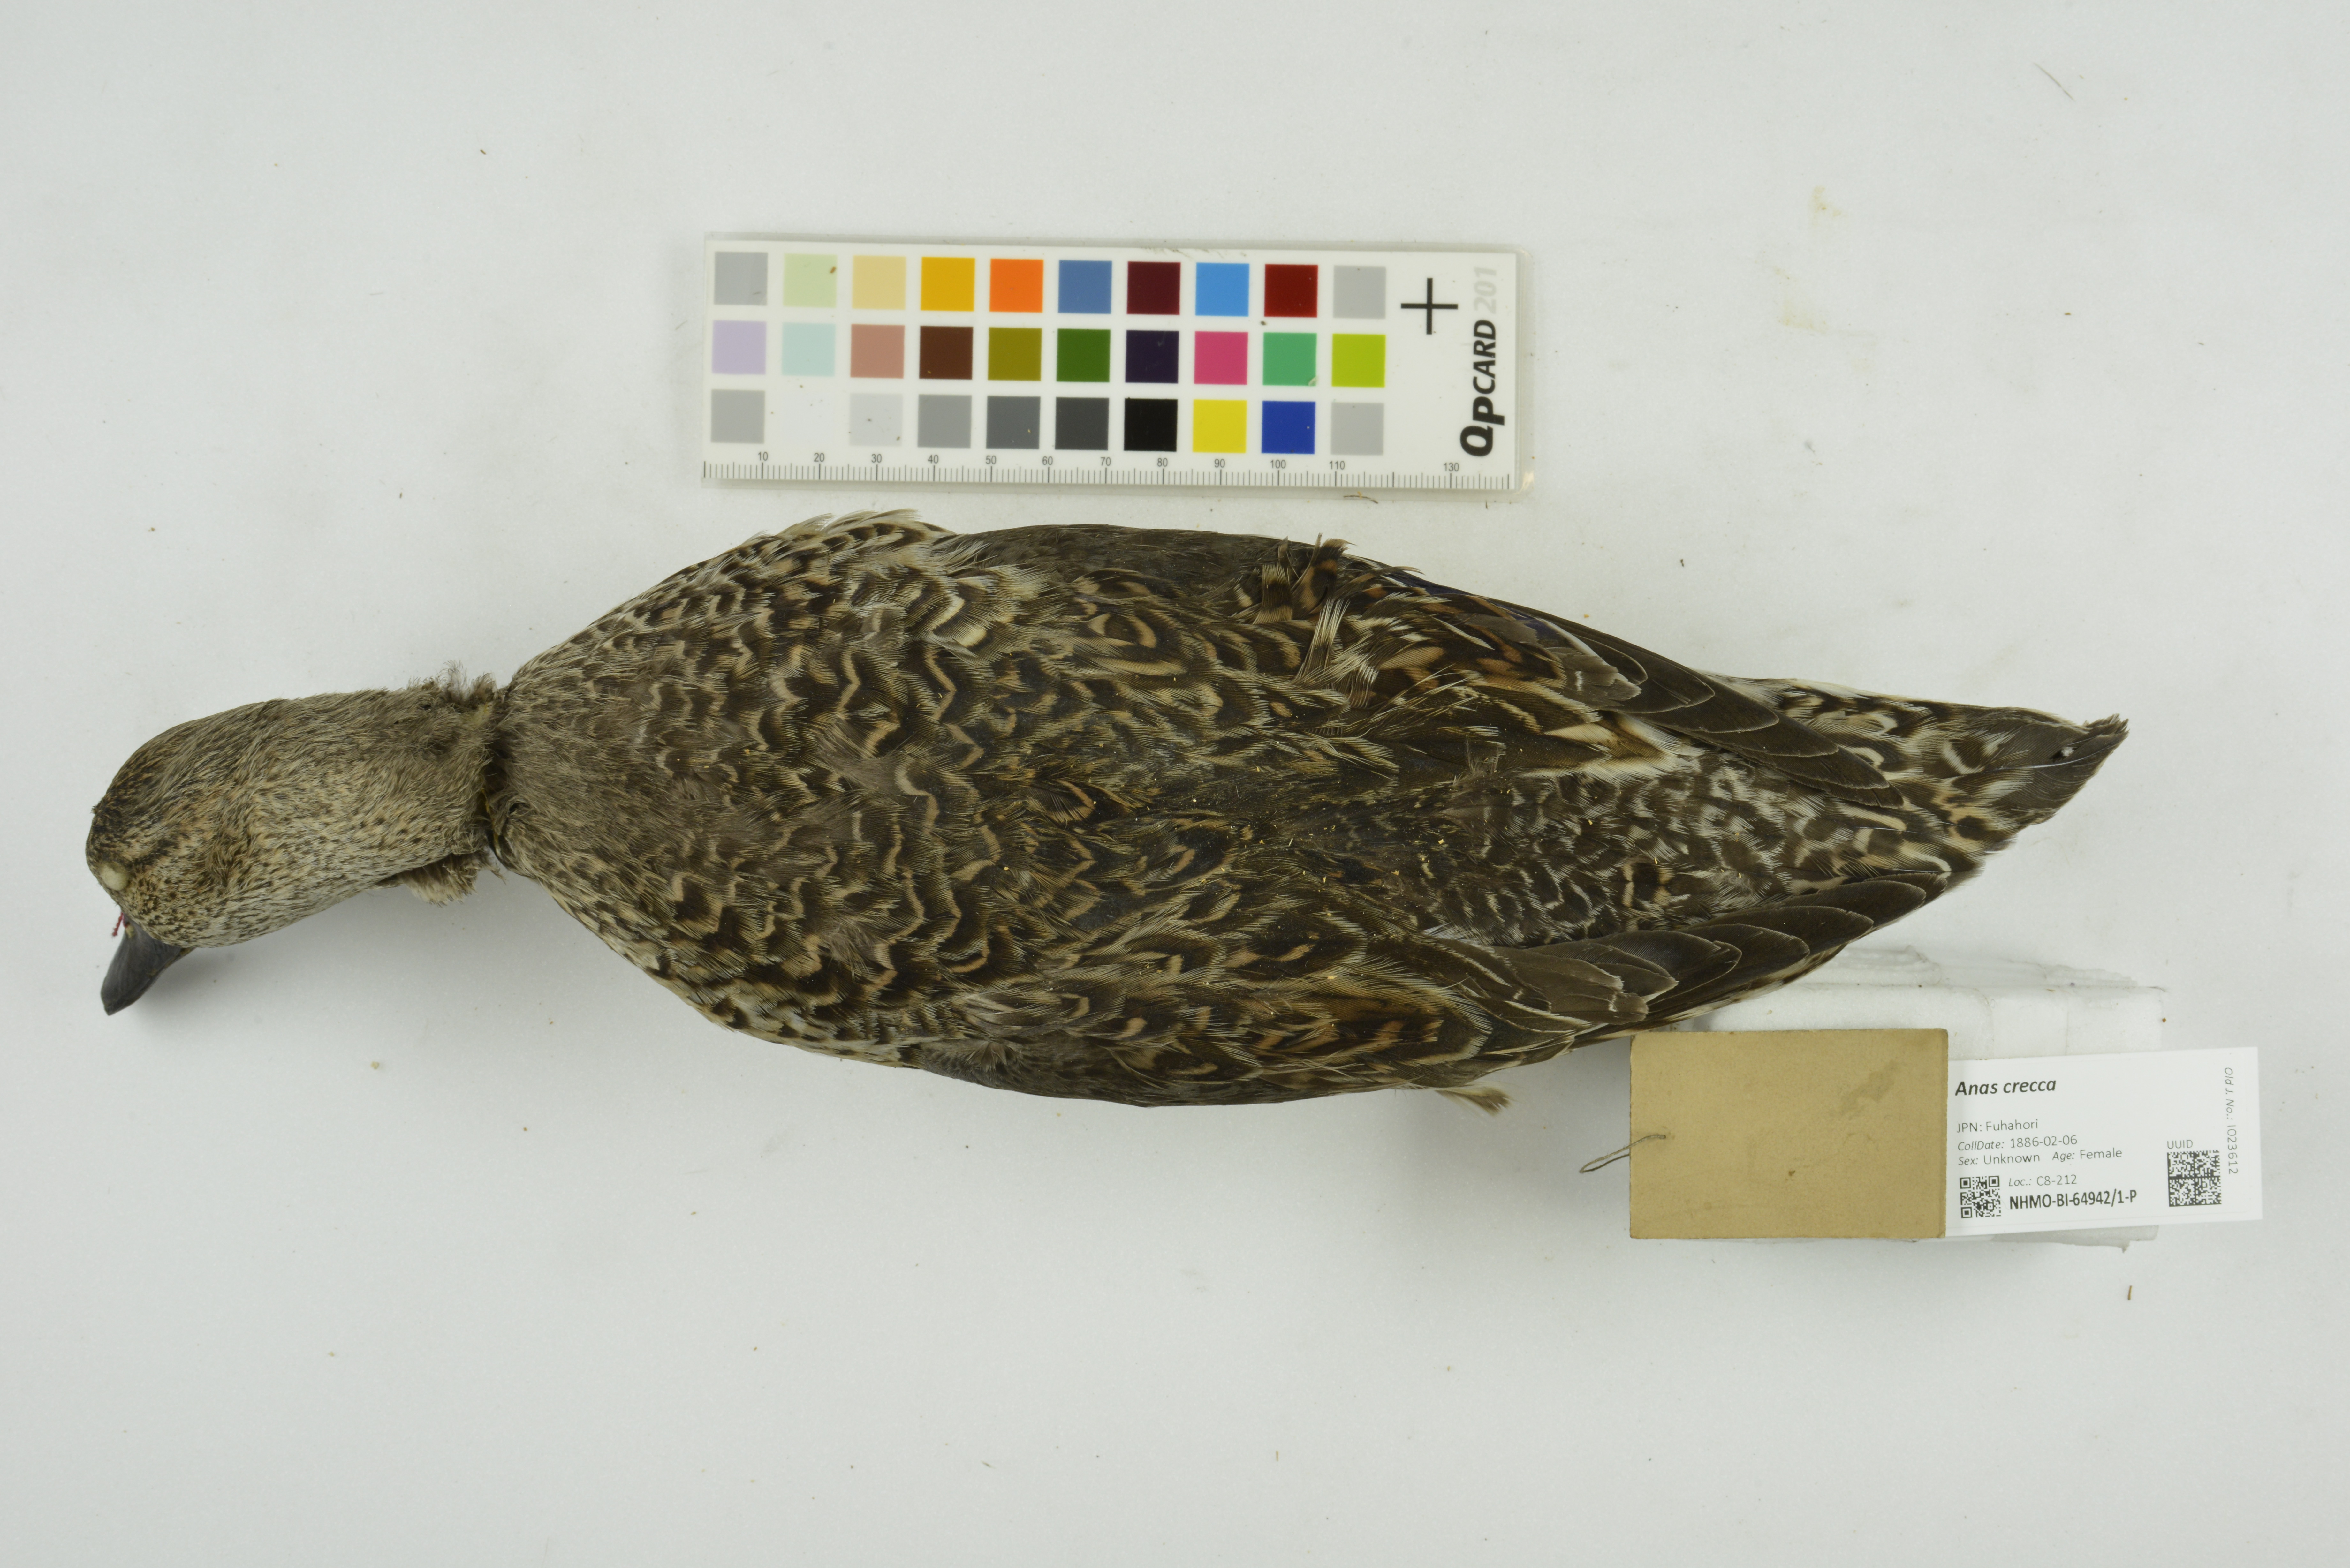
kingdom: Animalia
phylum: Chordata
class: Aves
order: Anseriformes
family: Anatidae
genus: Anas
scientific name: Anas crecca
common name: Eurasian teal
